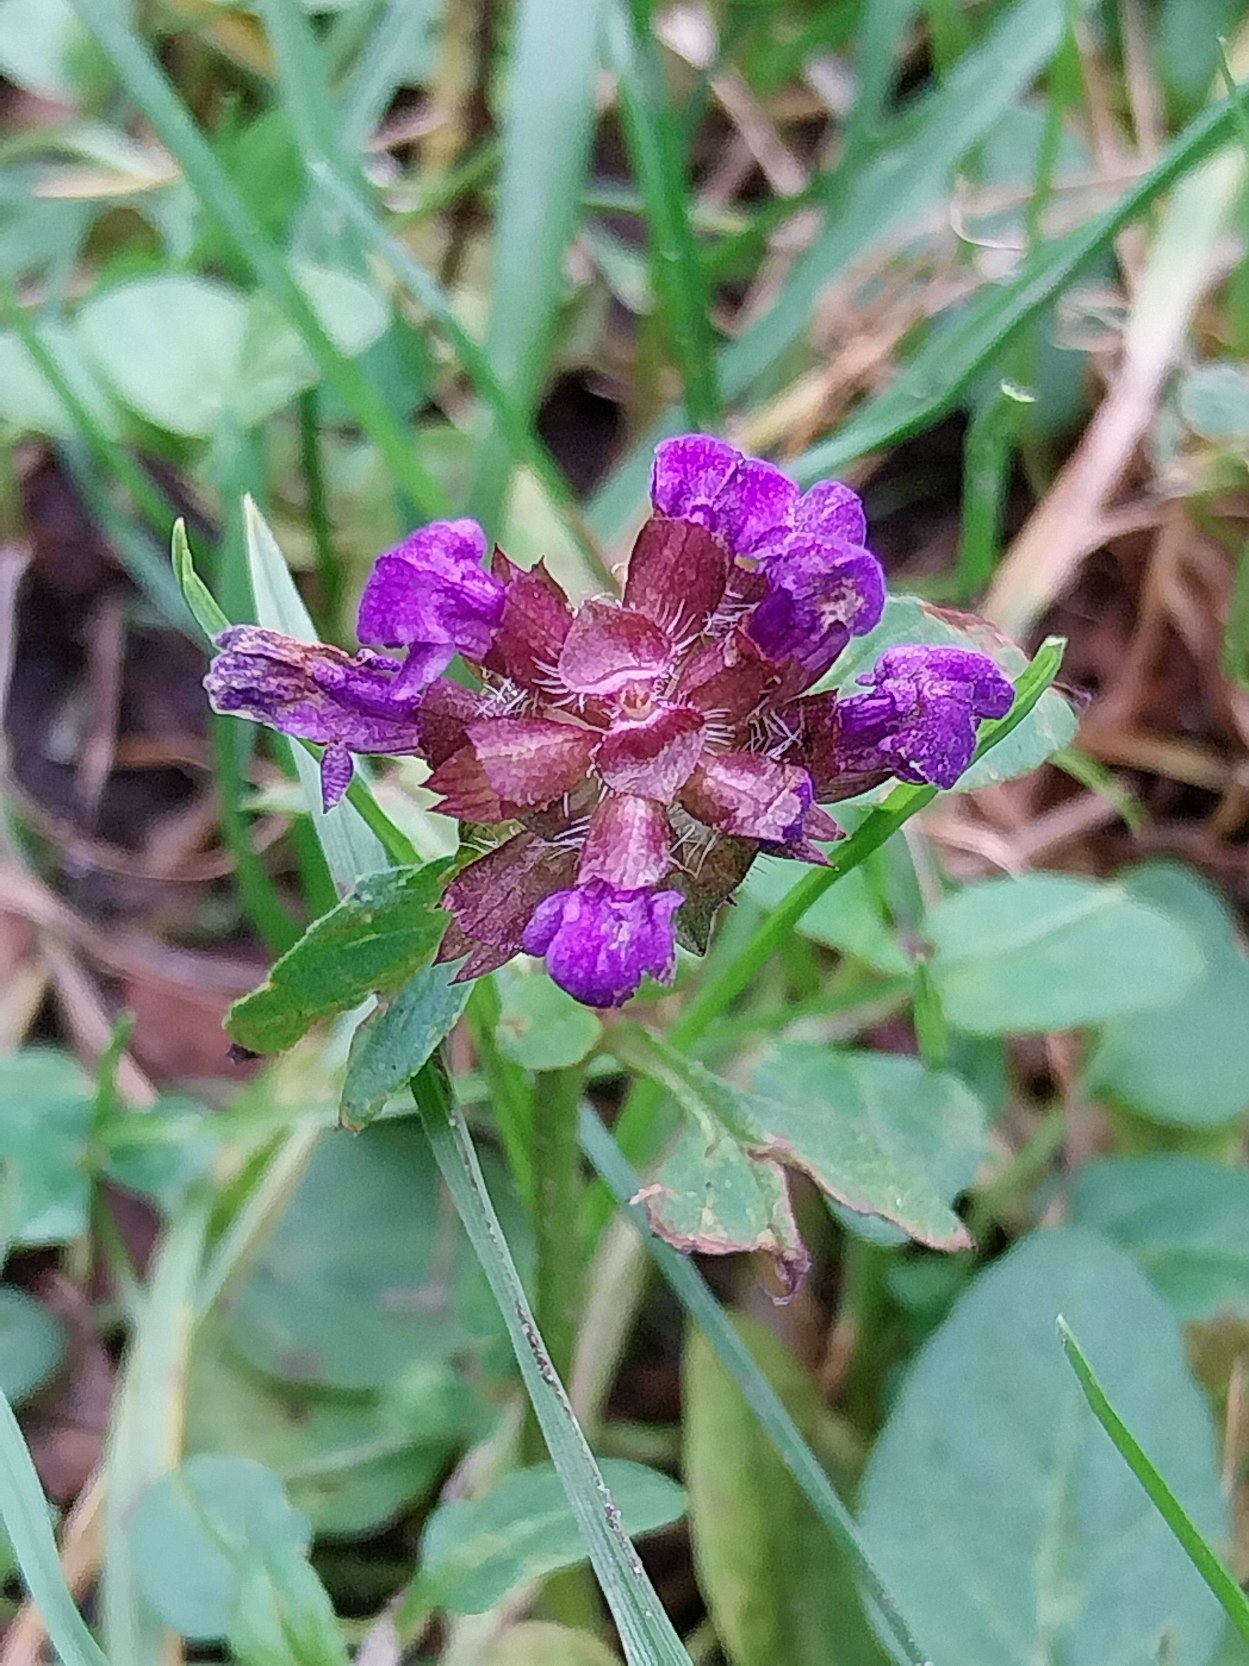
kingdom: Plantae
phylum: Tracheophyta
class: Magnoliopsida
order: Lamiales
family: Lamiaceae
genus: Prunella
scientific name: Prunella vulgaris
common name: Almindelig brunelle
